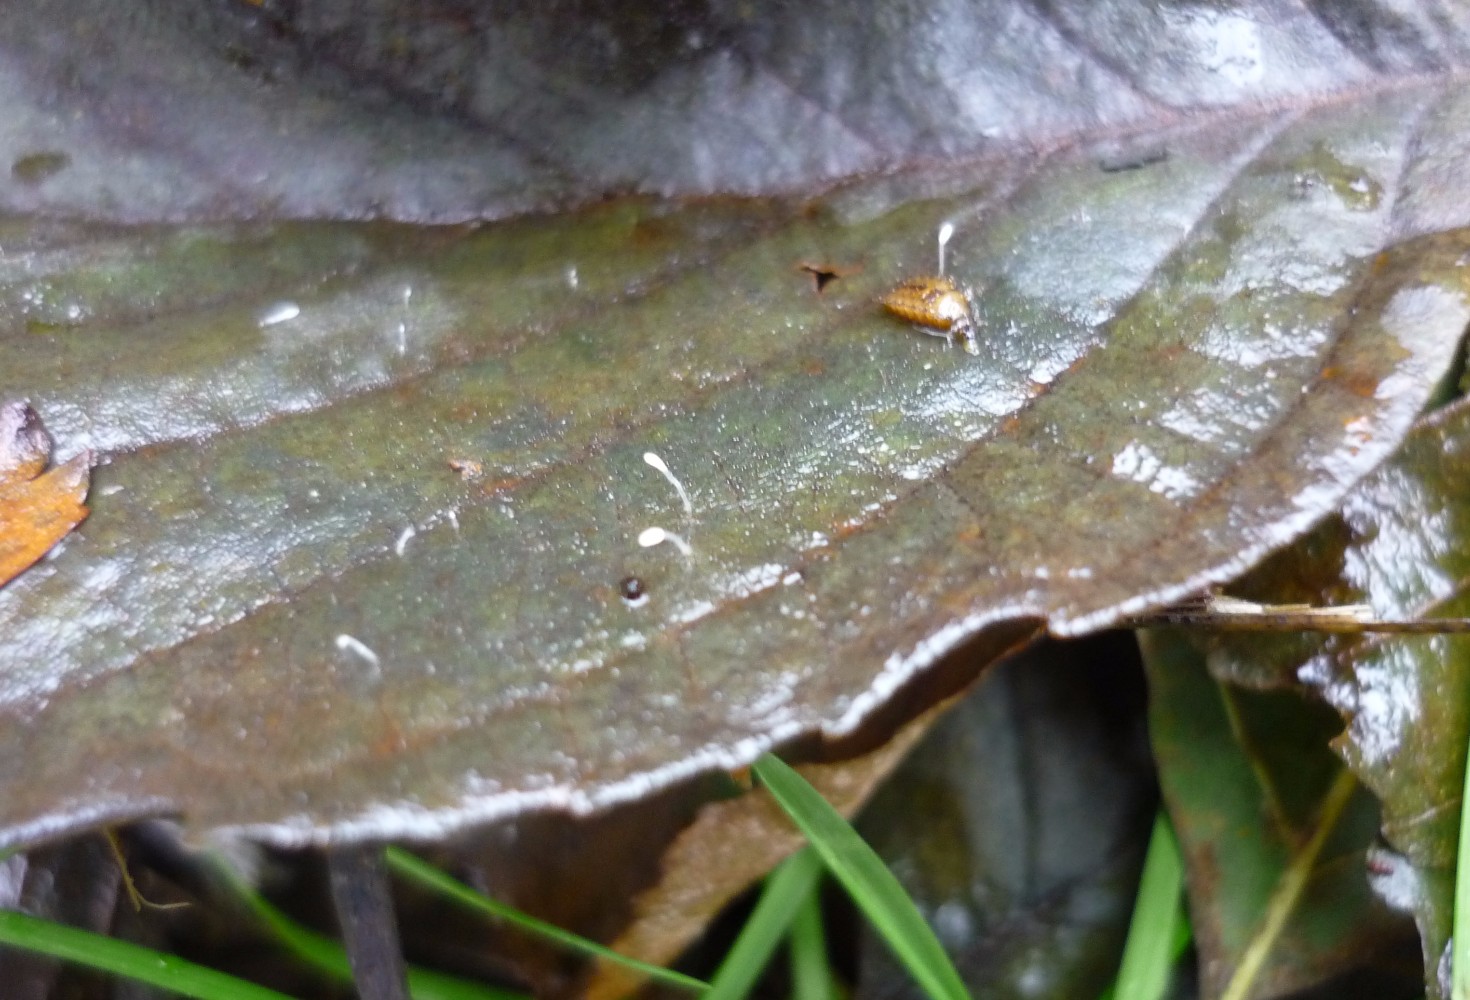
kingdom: Fungi
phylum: Basidiomycota
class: Agaricomycetes
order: Agaricales
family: Typhulaceae
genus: Typhula
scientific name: Typhula setipes
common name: liden trådkølle
